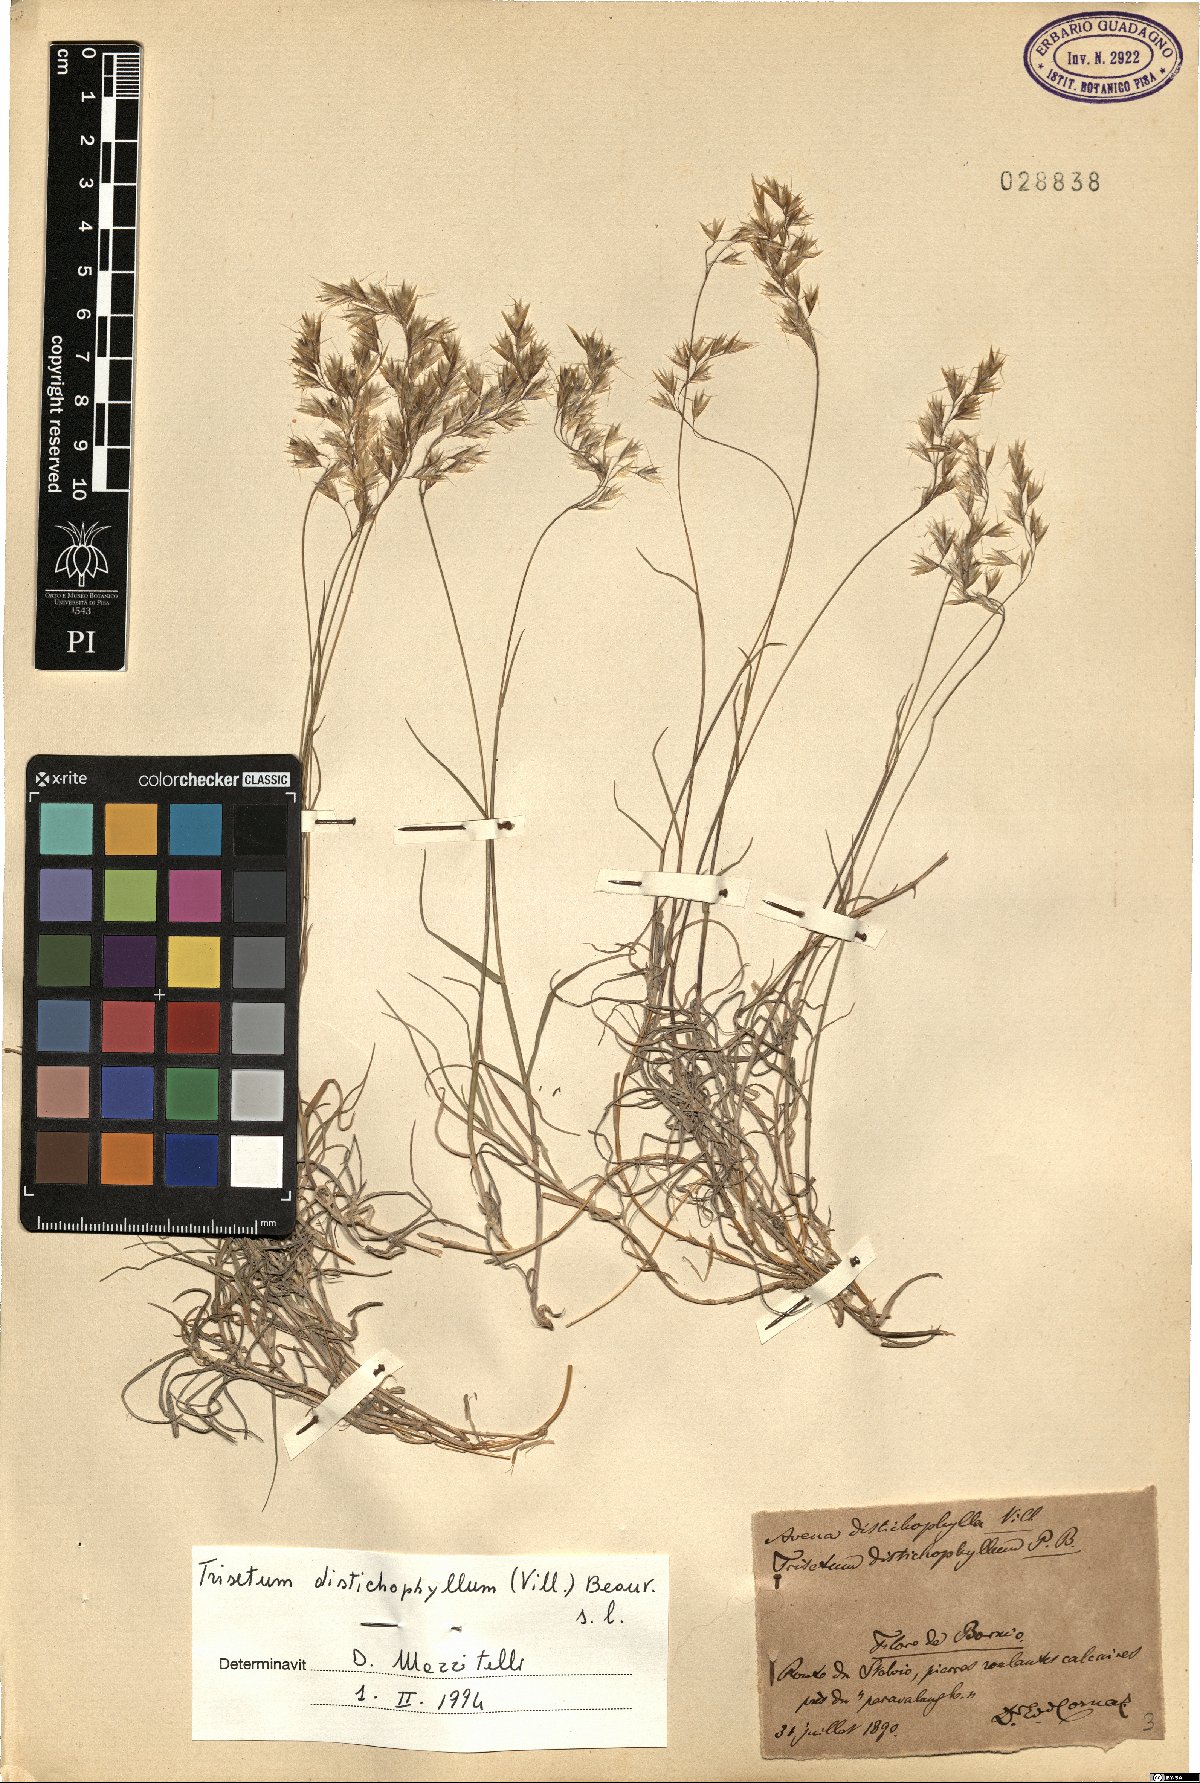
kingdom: Plantae
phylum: Tracheophyta
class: Liliopsida
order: Poales
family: Poaceae
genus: Acrospelion
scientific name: Acrospelion distichophyllum
